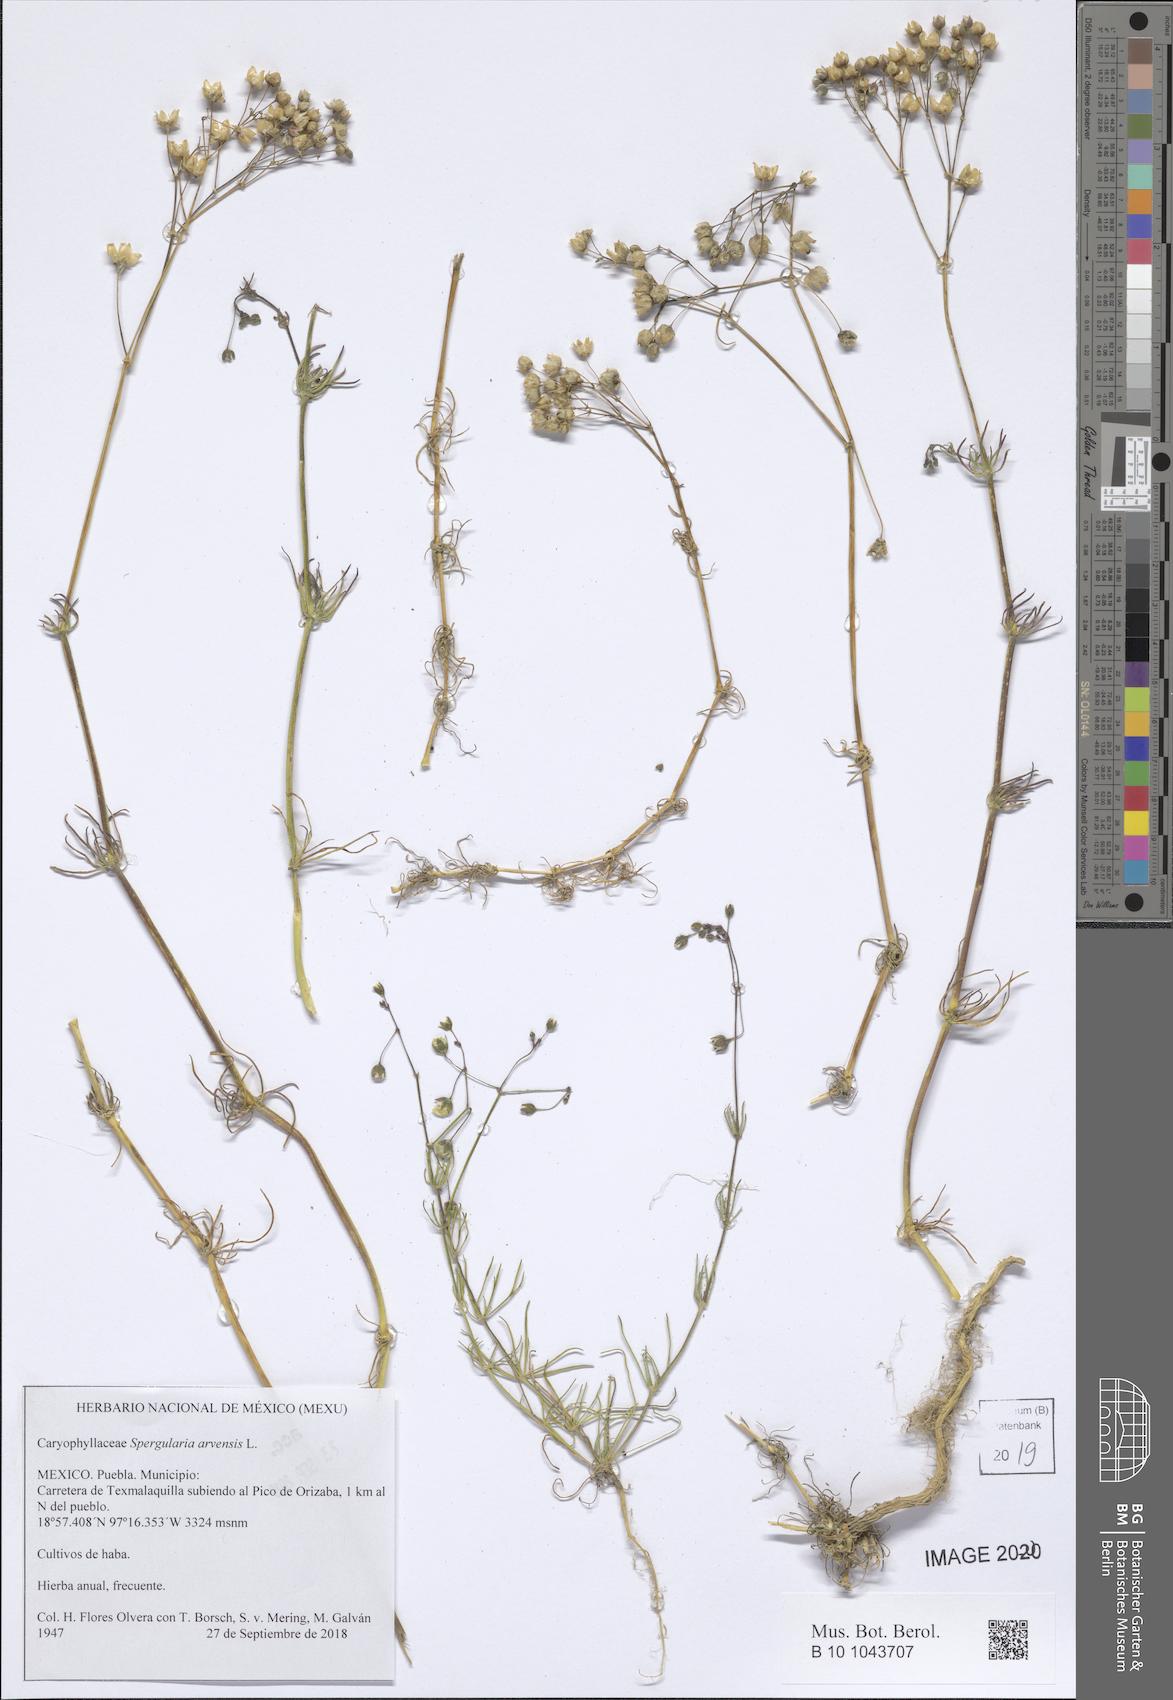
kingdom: Plantae
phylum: Tracheophyta
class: Magnoliopsida
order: Caryophyllales
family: Caryophyllaceae
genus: Spergula
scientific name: Spergula arvensis
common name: Corn spurrey
